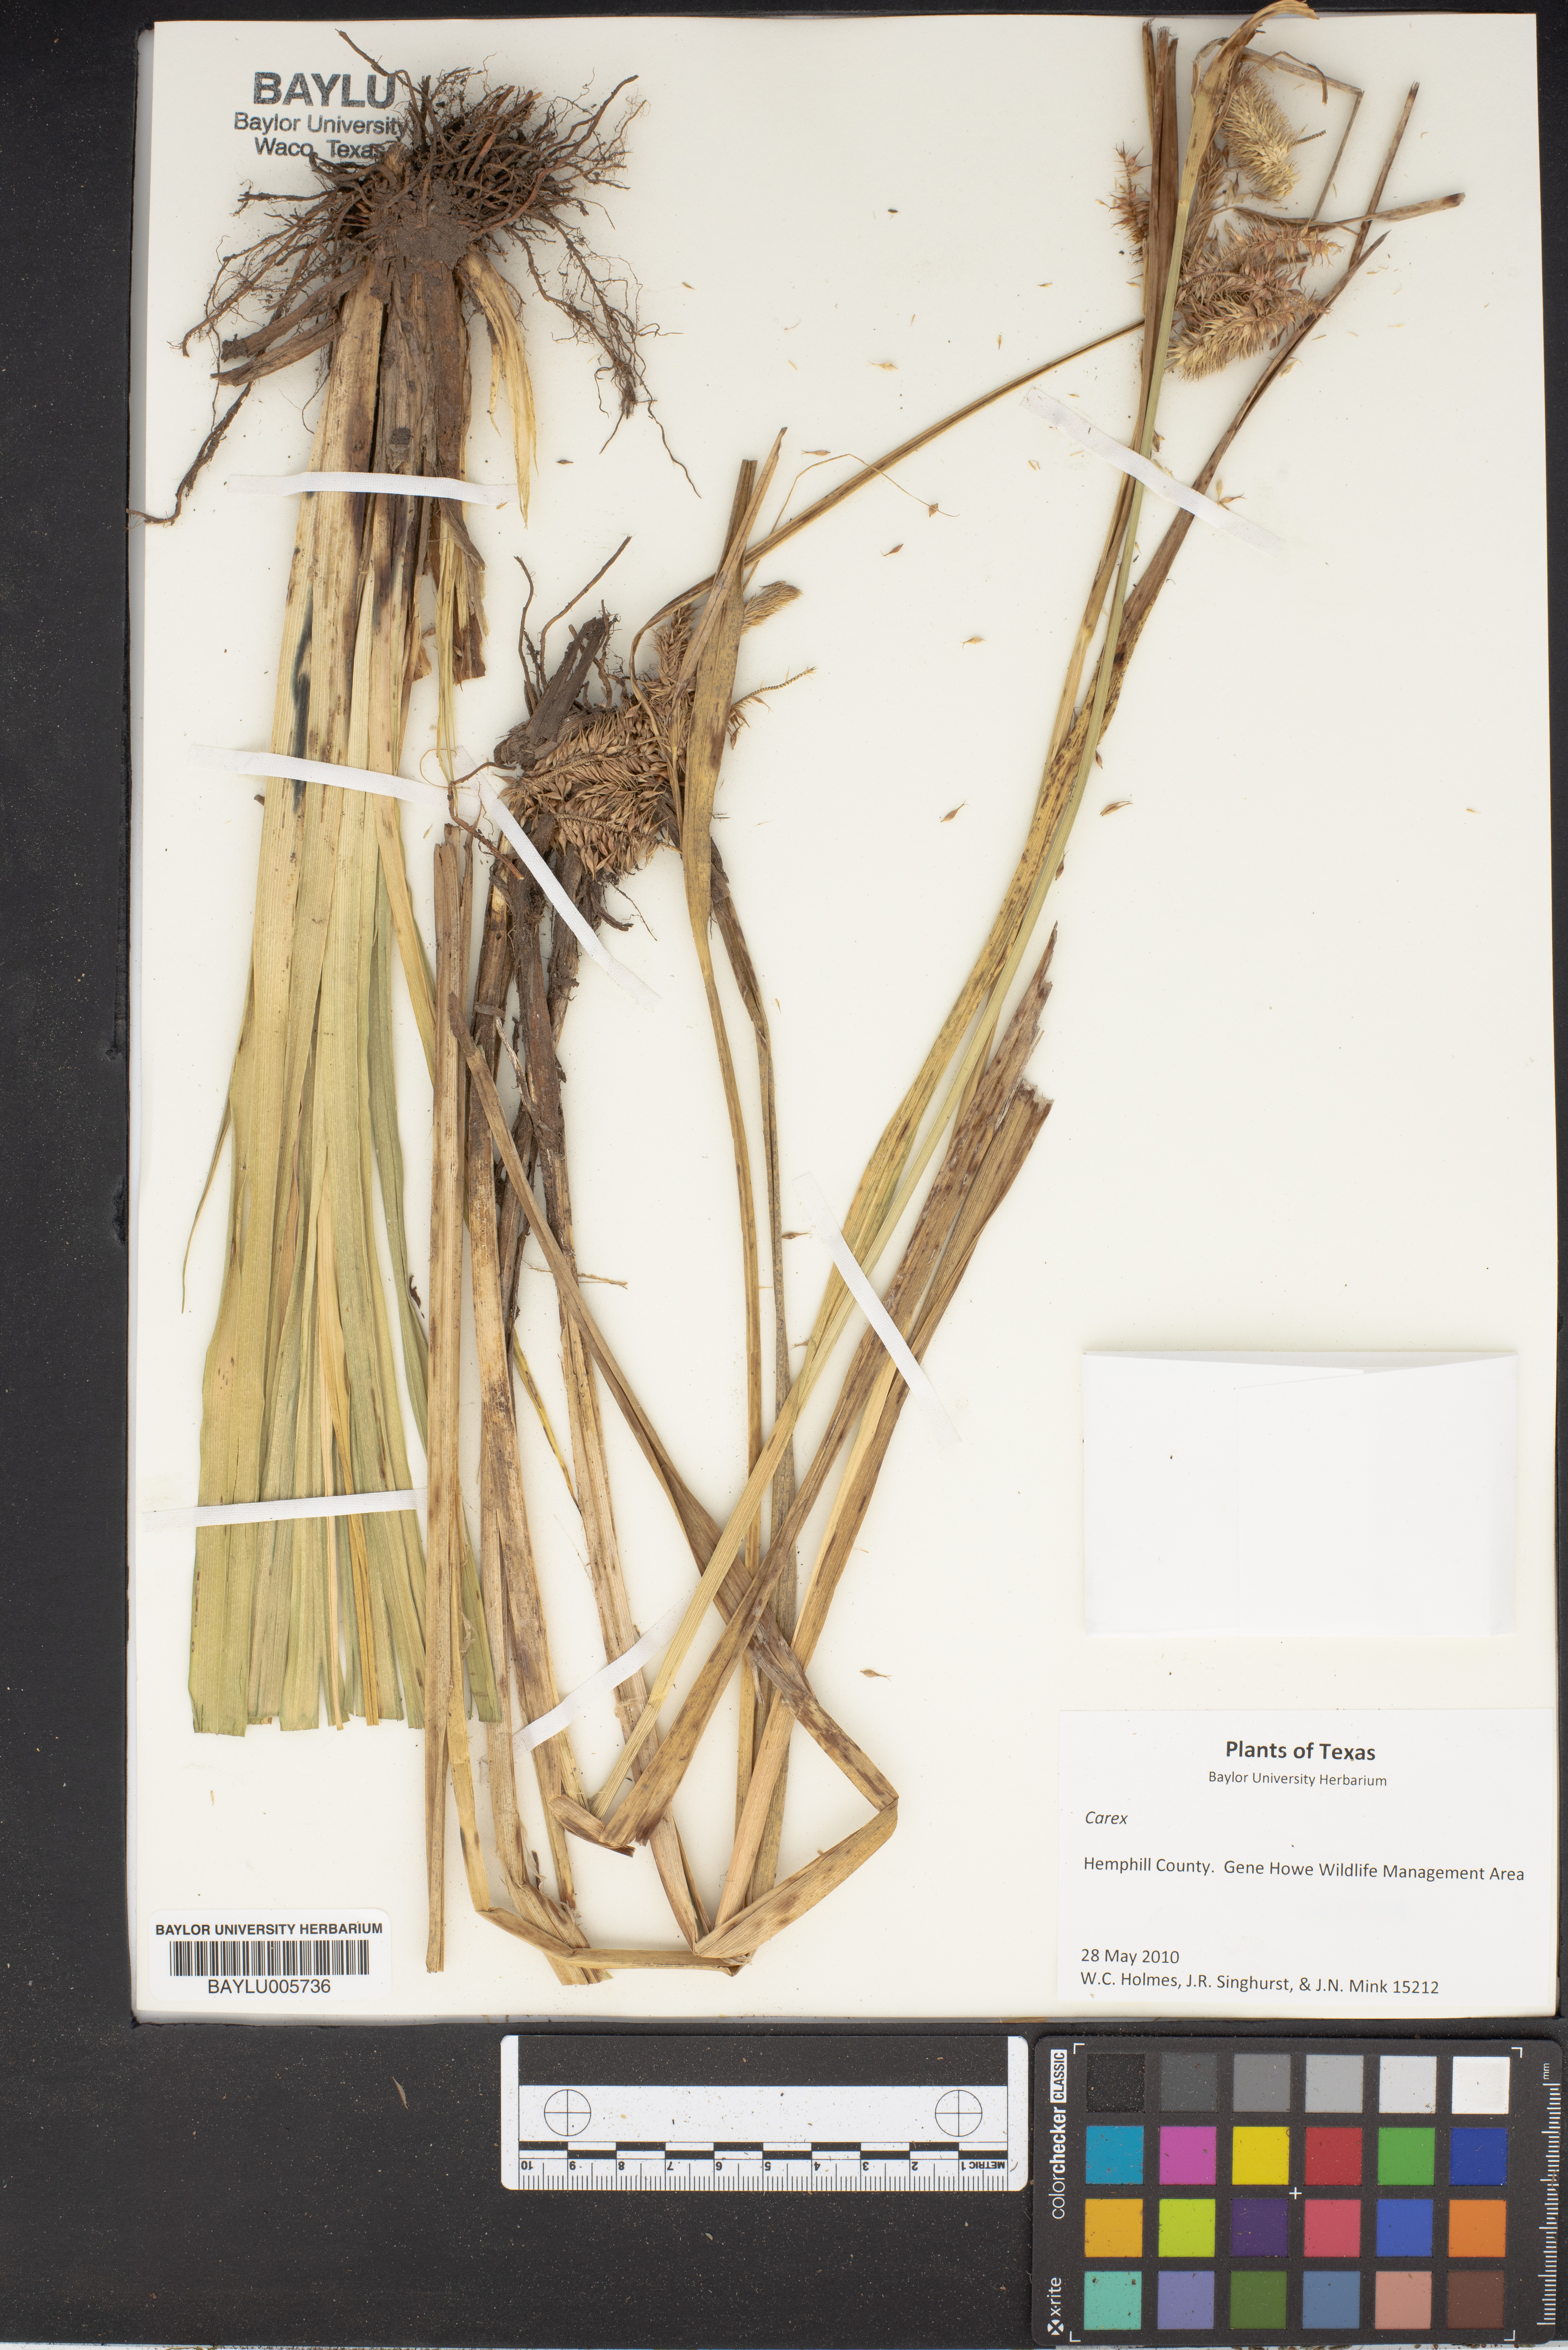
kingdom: Plantae
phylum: Tracheophyta
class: Liliopsida
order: Poales
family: Cyperaceae
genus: Carex
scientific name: Carex
